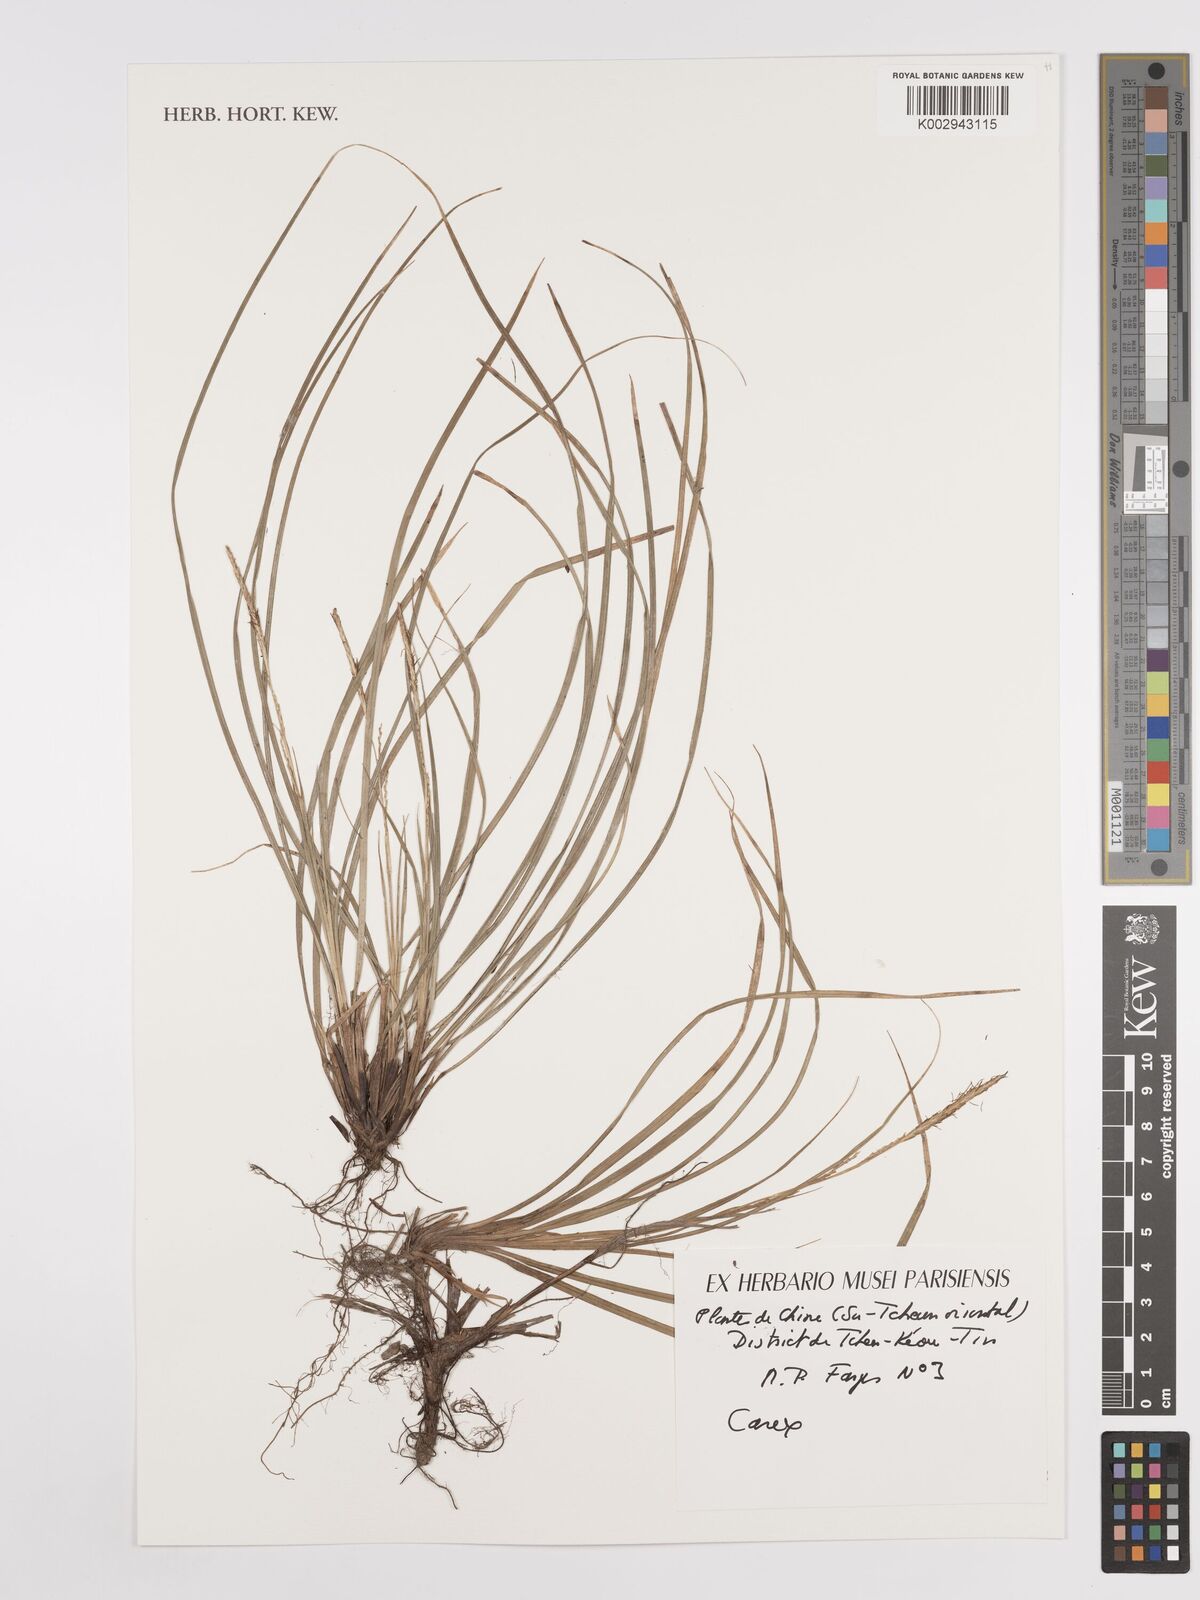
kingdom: Plantae
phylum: Tracheophyta
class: Liliopsida
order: Poales
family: Cyperaceae
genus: Carex
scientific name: Carex
